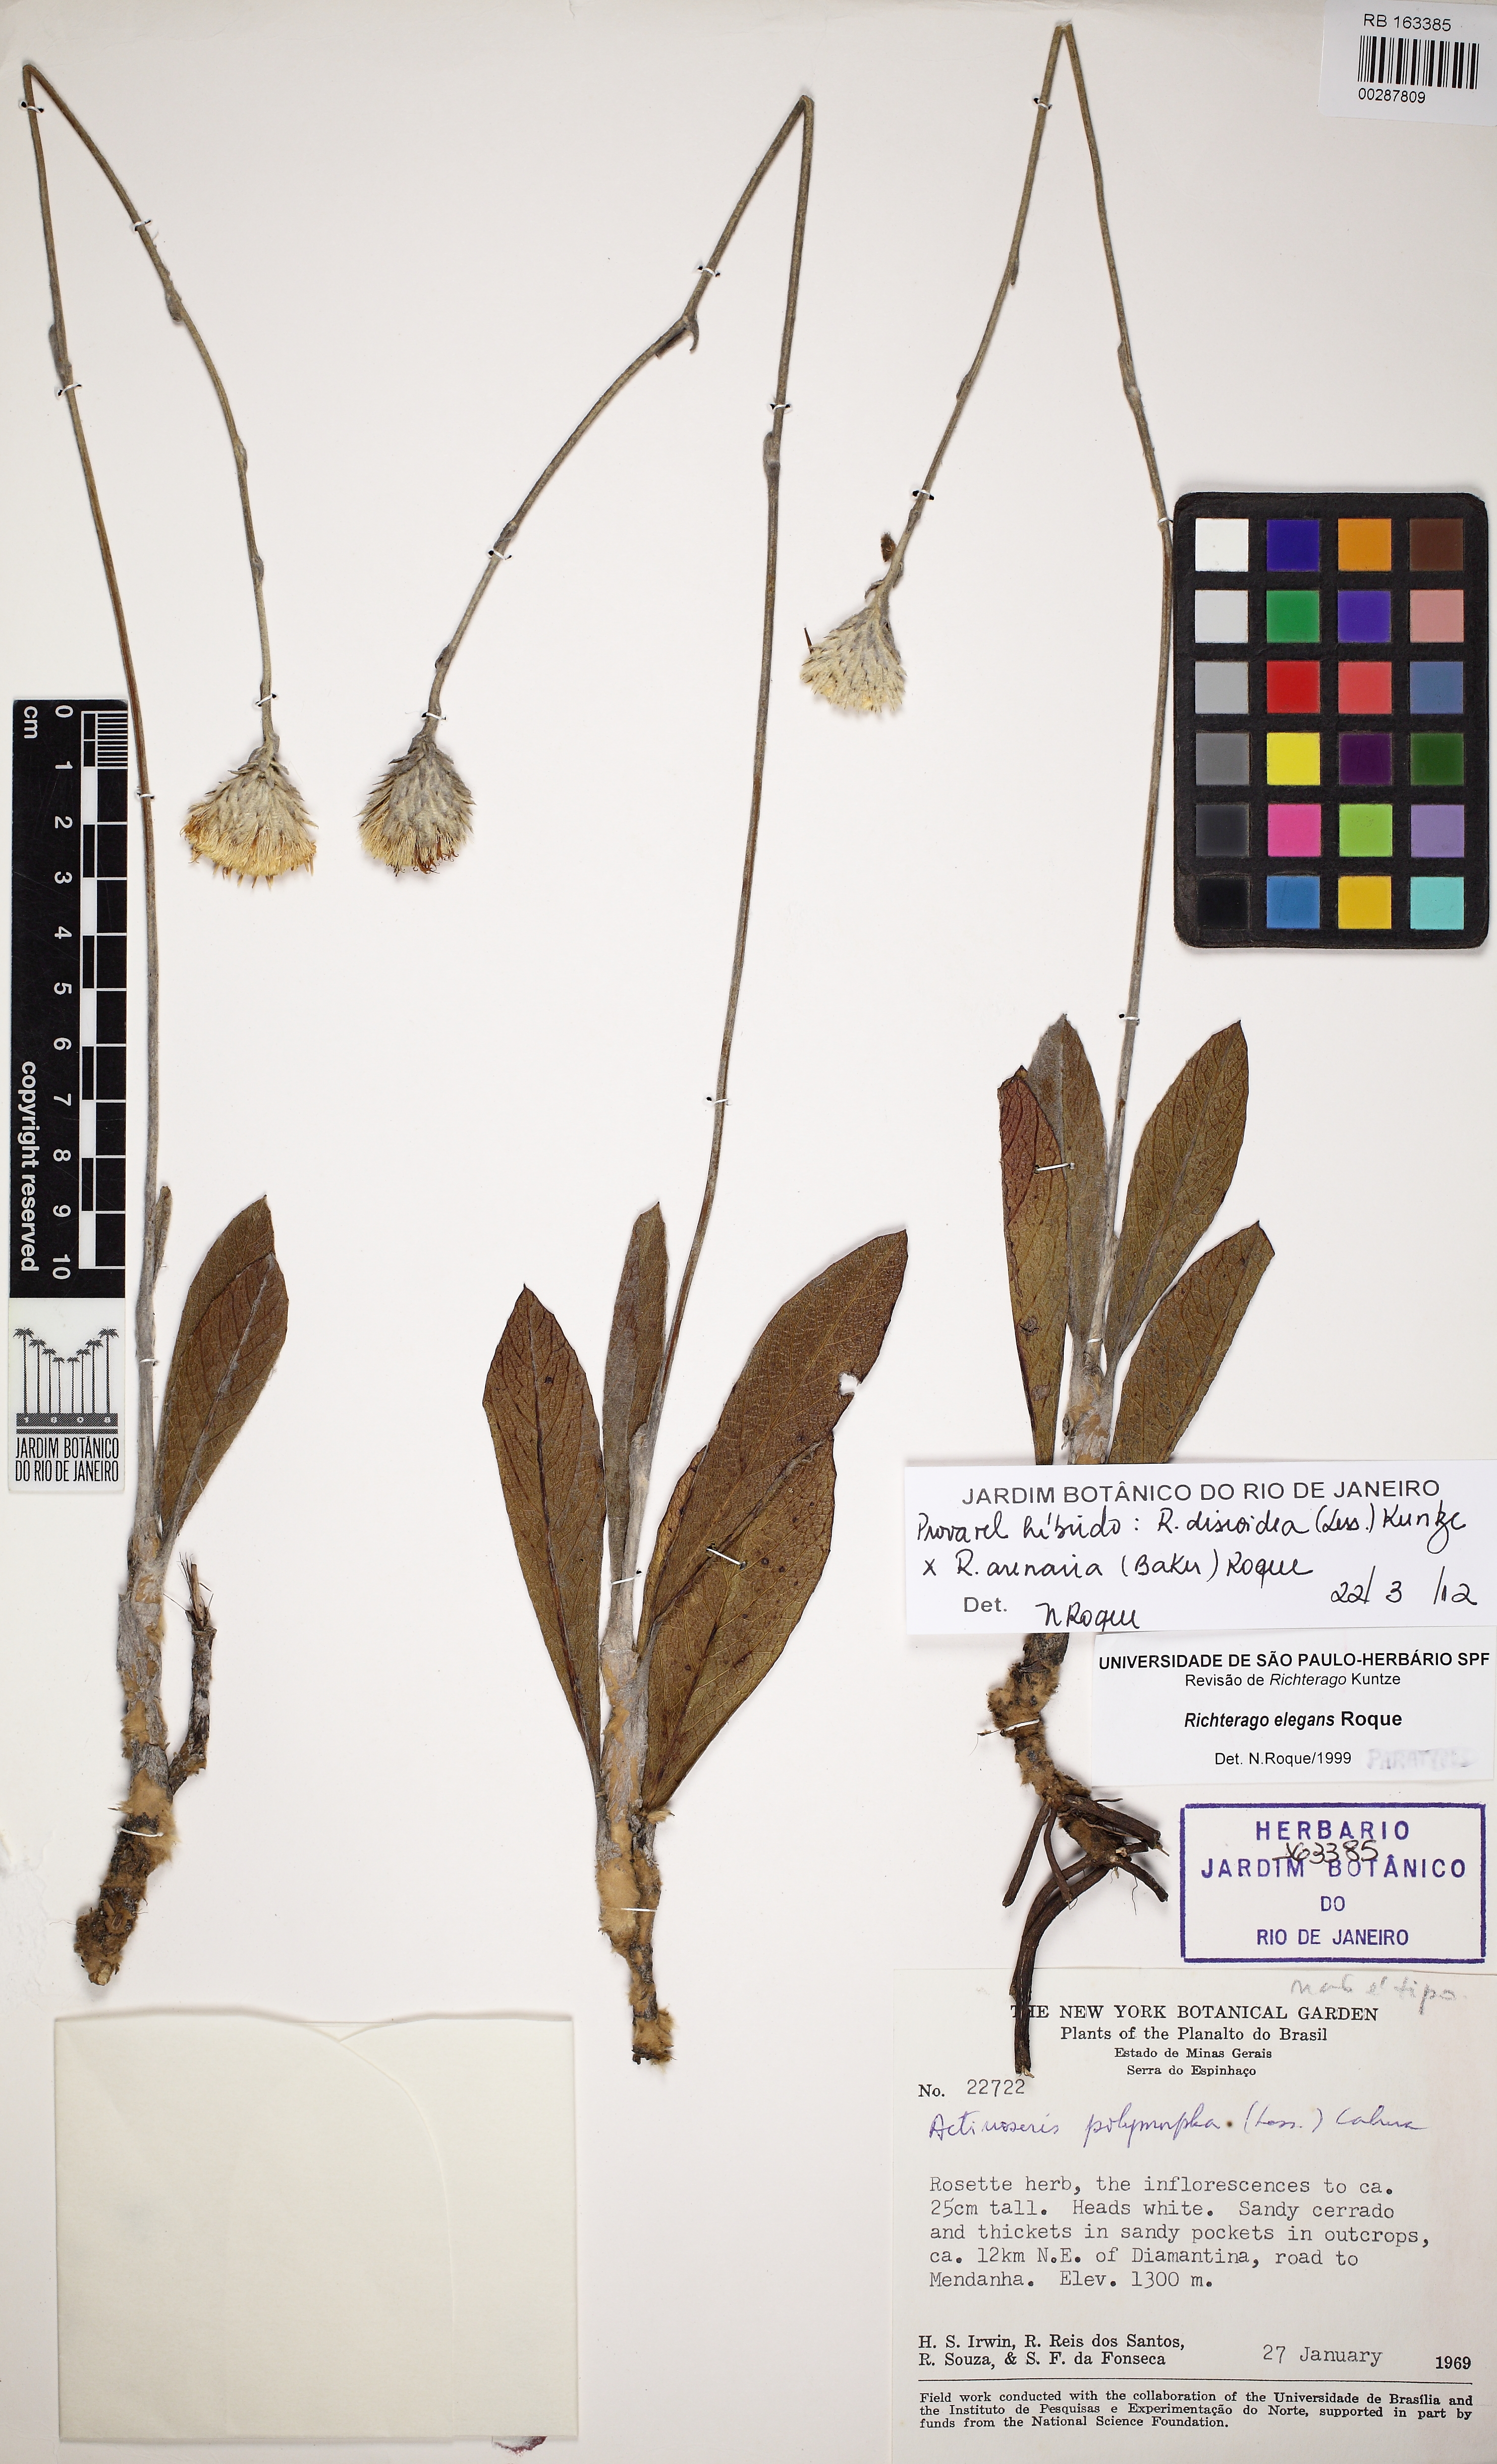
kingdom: Plantae
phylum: Tracheophyta
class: Magnoliopsida
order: Asterales
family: Asteraceae
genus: Richterago
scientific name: Richterago discoidea
